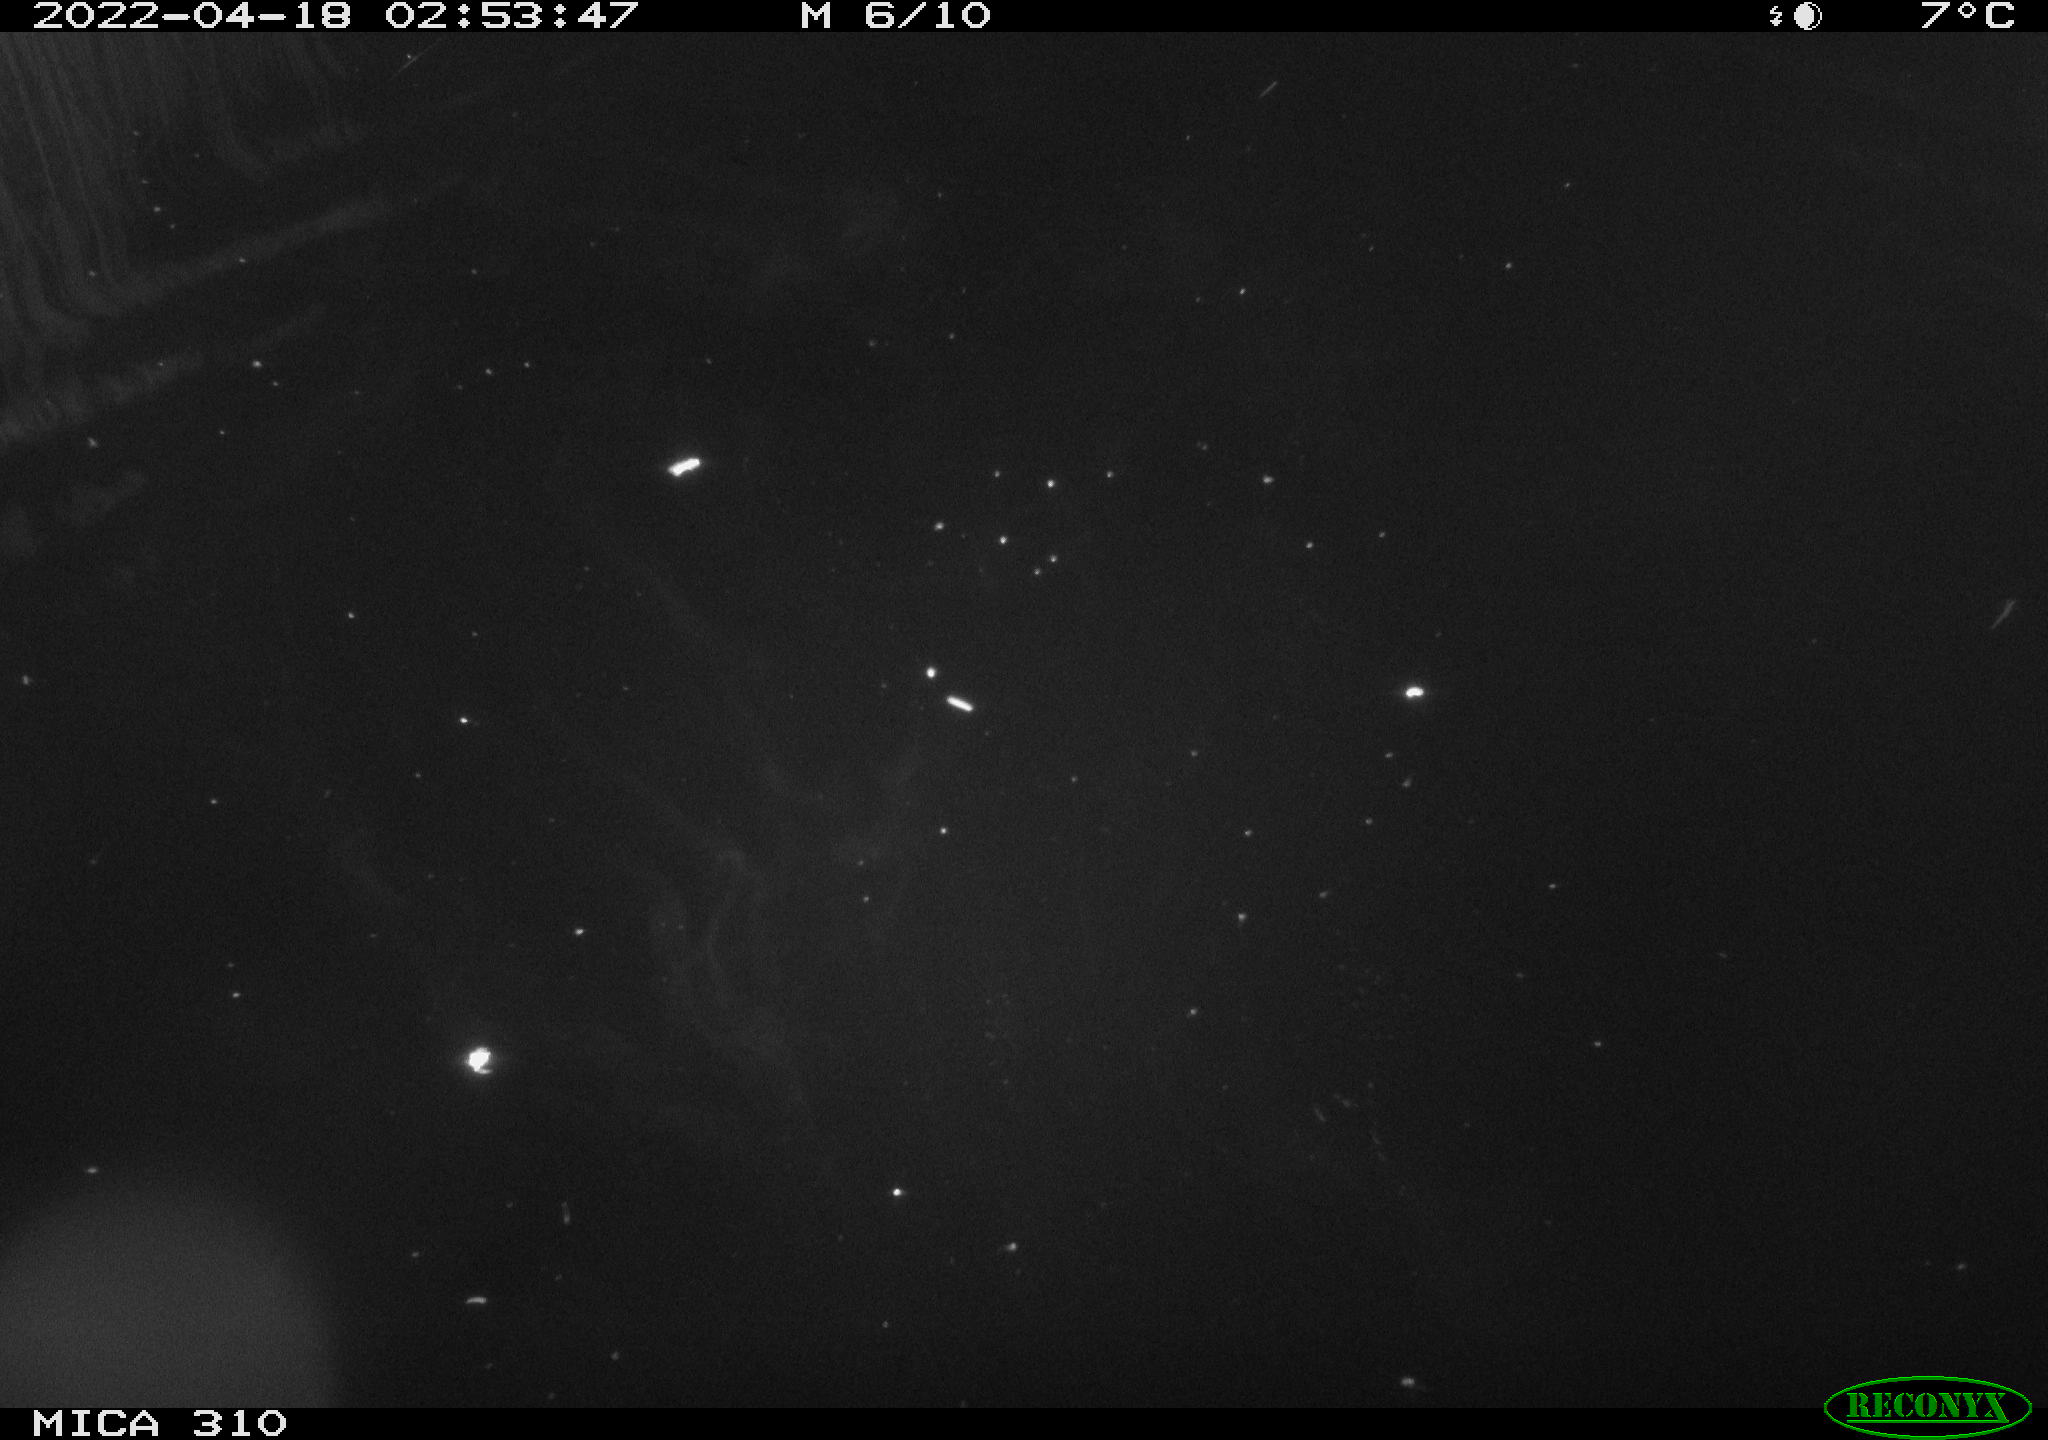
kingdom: Animalia
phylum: Chordata
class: Aves
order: Anseriformes
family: Anatidae
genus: Anas
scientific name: Anas platyrhynchos
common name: Mallard
